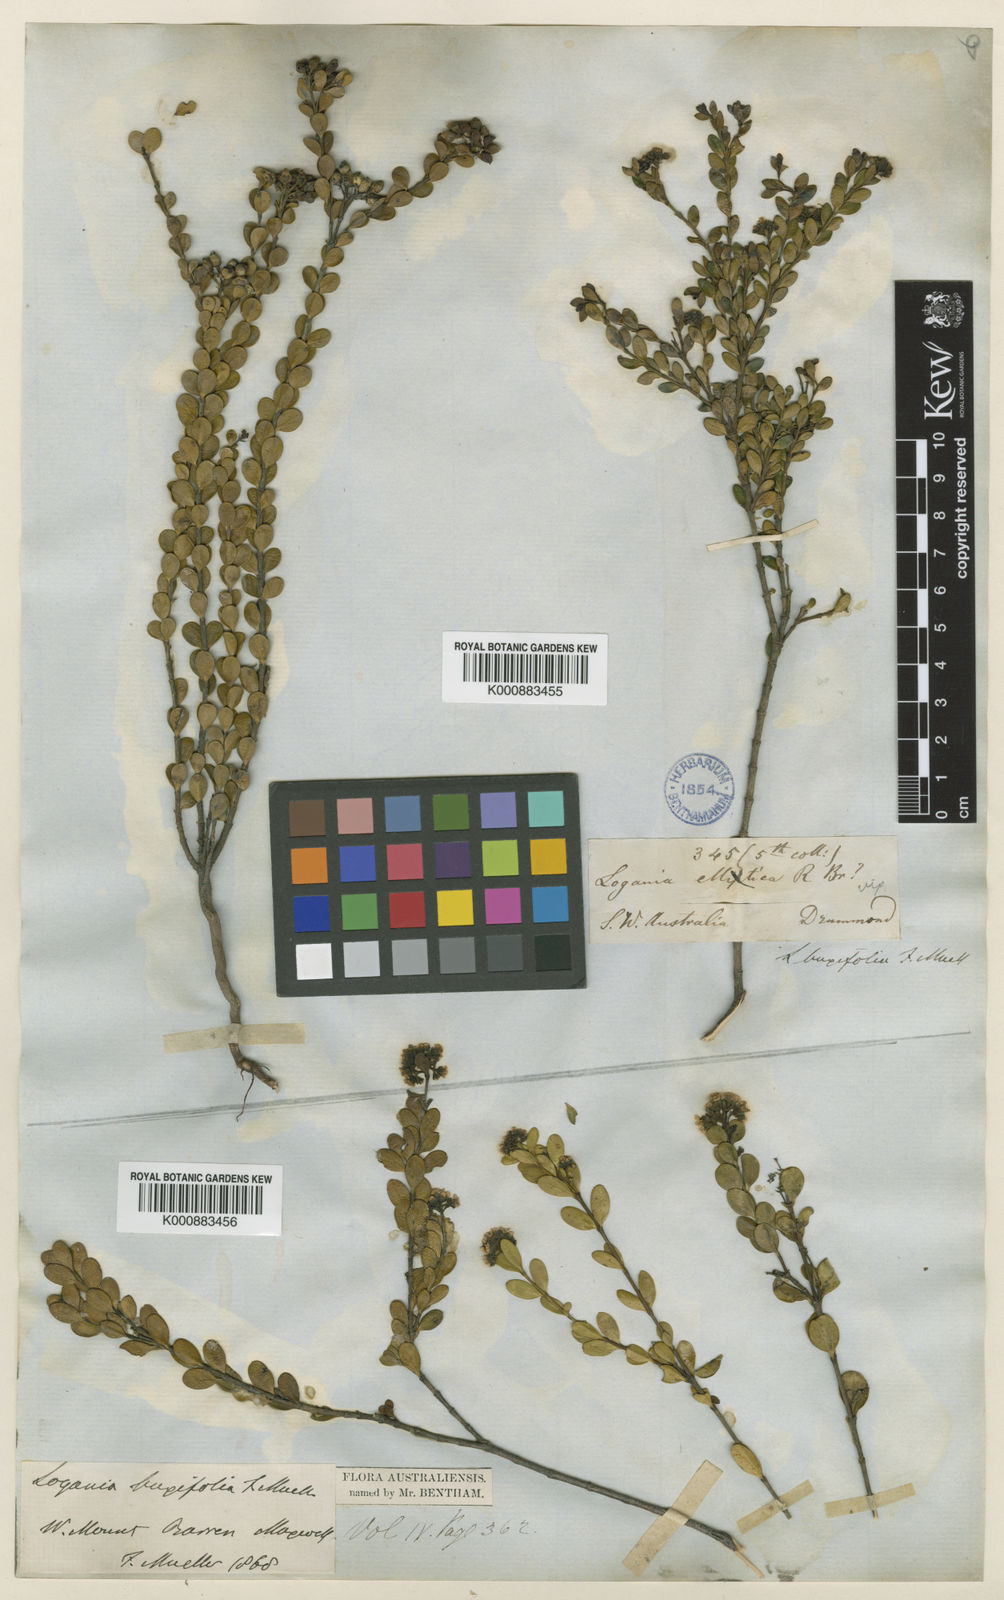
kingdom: Plantae
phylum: Tracheophyta
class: Magnoliopsida
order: Gentianales
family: Loganiaceae
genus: Logania
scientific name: Logania buxifolia
